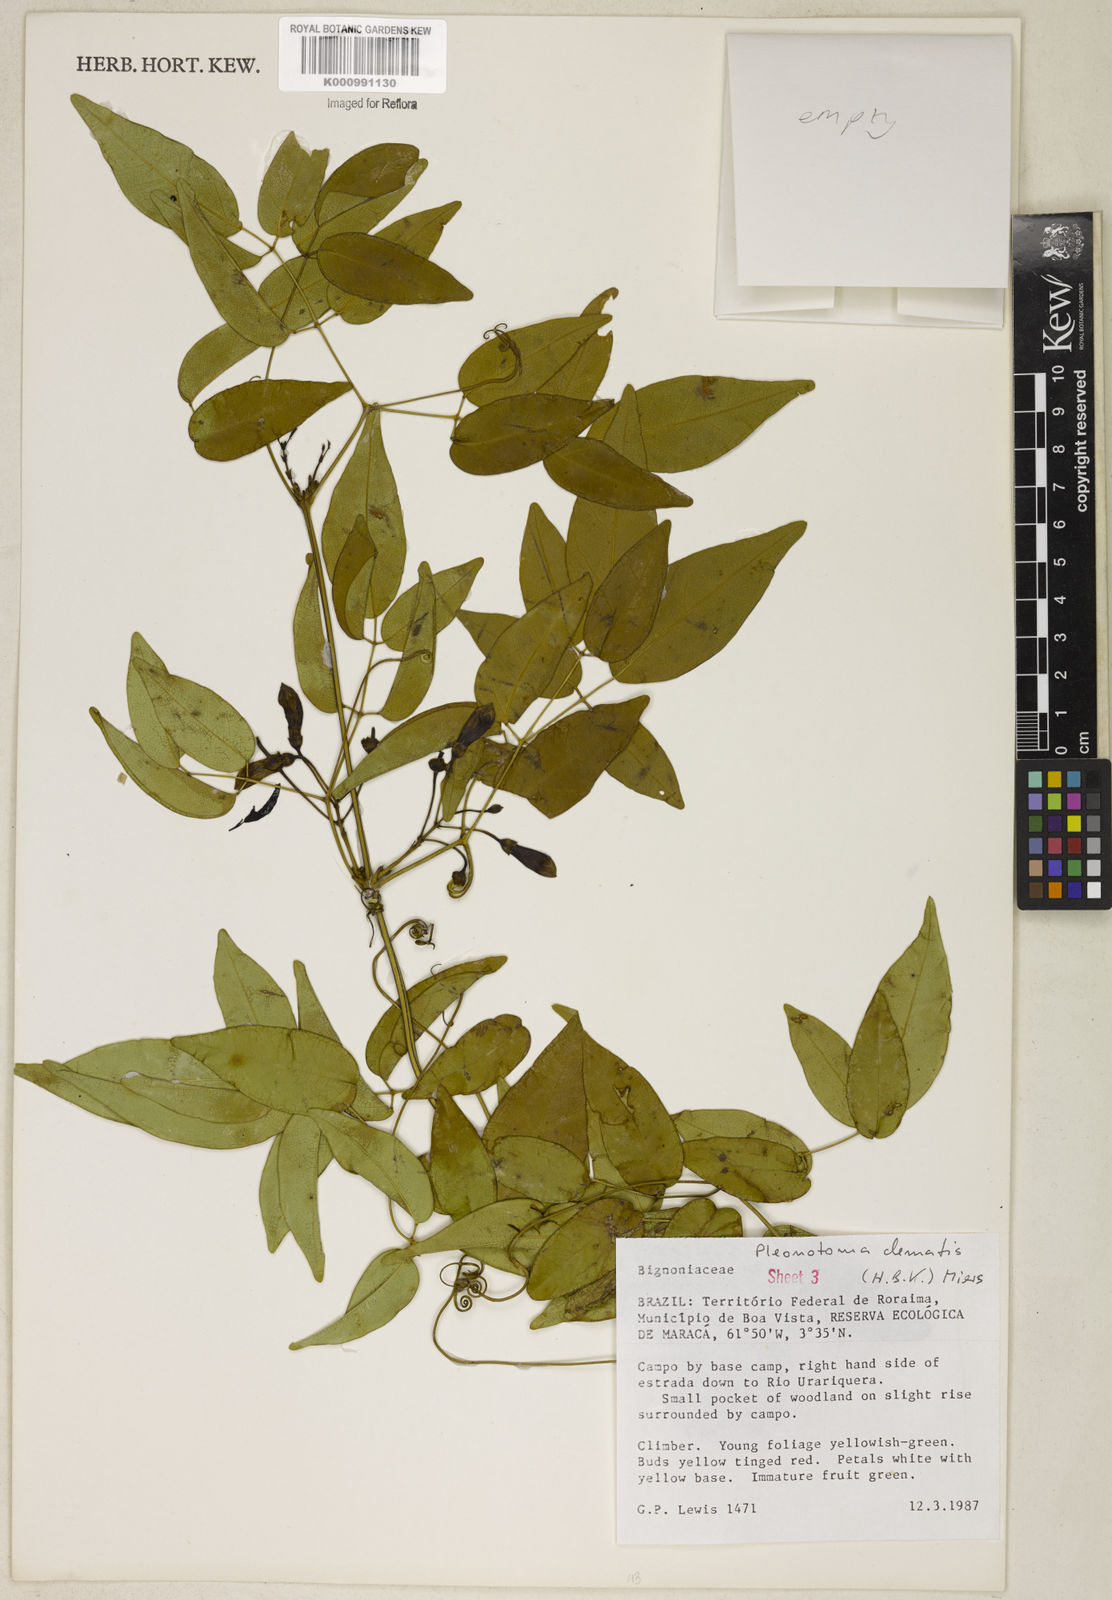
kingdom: Plantae
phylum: Tracheophyta
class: Magnoliopsida
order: Lamiales
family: Bignoniaceae
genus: Pleonotoma
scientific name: Pleonotoma clematis
